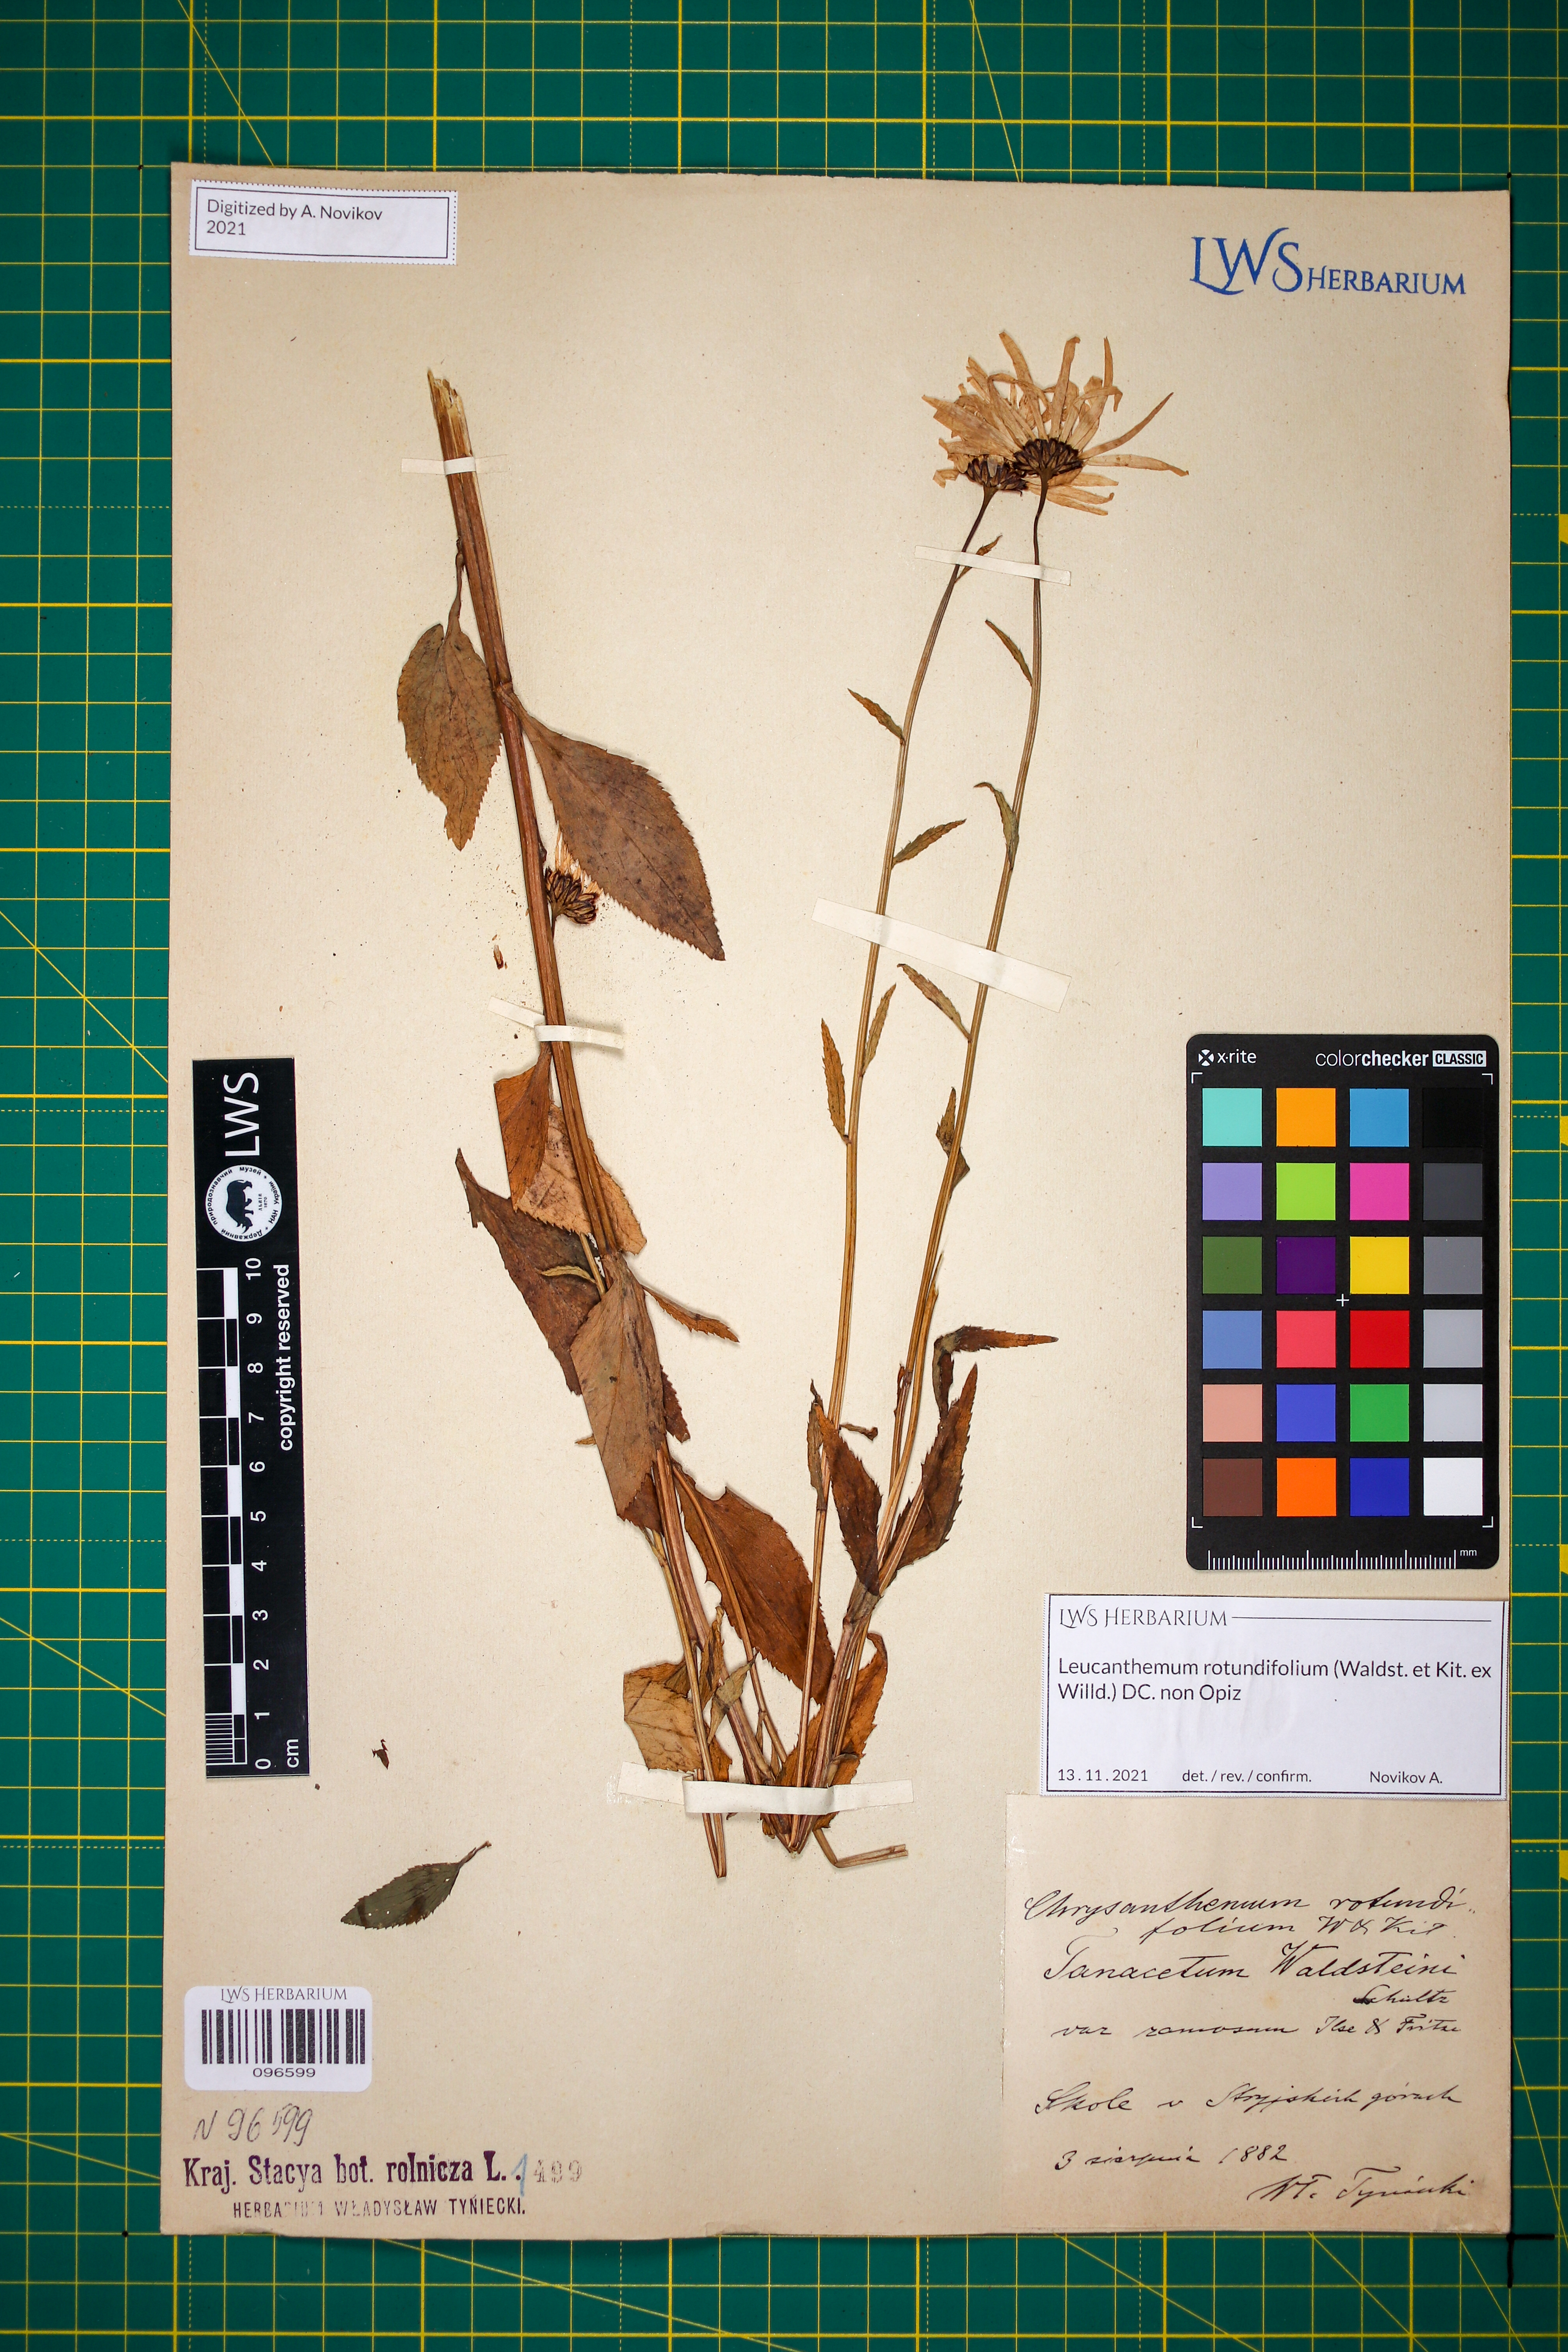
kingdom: Plantae
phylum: Tracheophyta
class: Magnoliopsida
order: Asterales
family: Asteraceae
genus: Leucanthemum
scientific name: Leucanthemum rotundifolium
